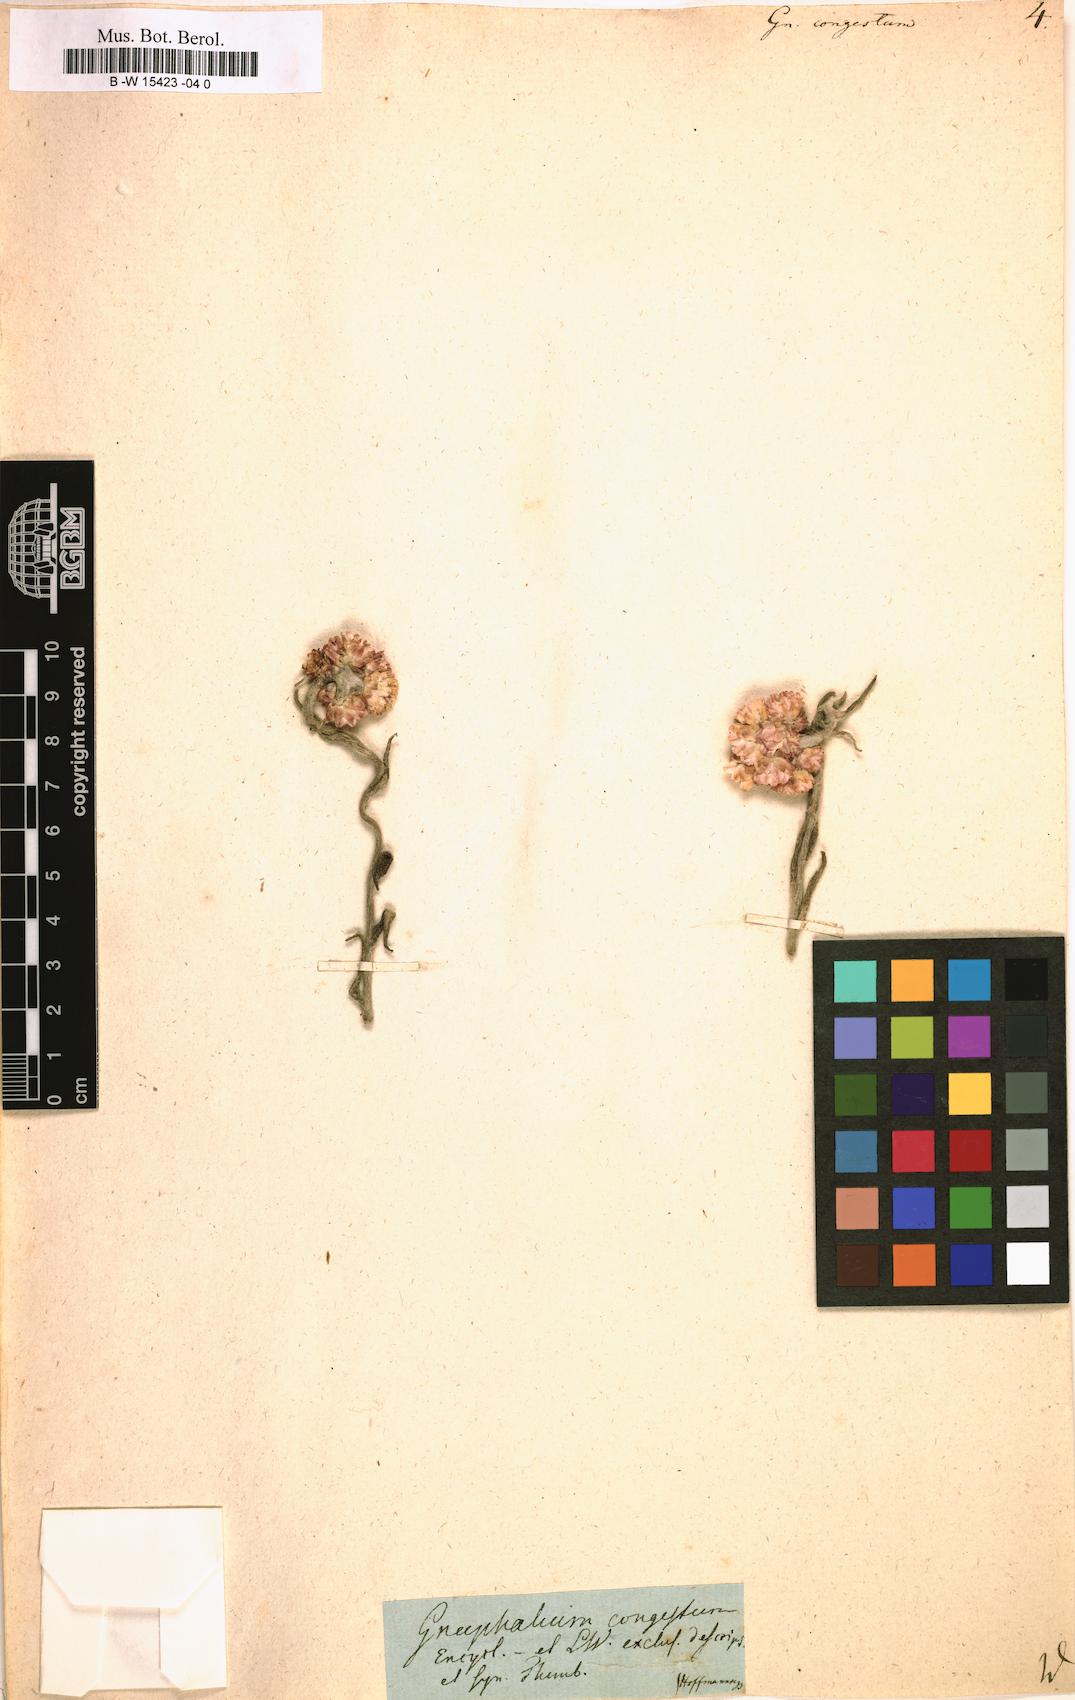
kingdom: Plantae
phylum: Tracheophyta
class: Magnoliopsida
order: Asterales
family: Asteraceae
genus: Helichrysum
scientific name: Helichrysum felinum
